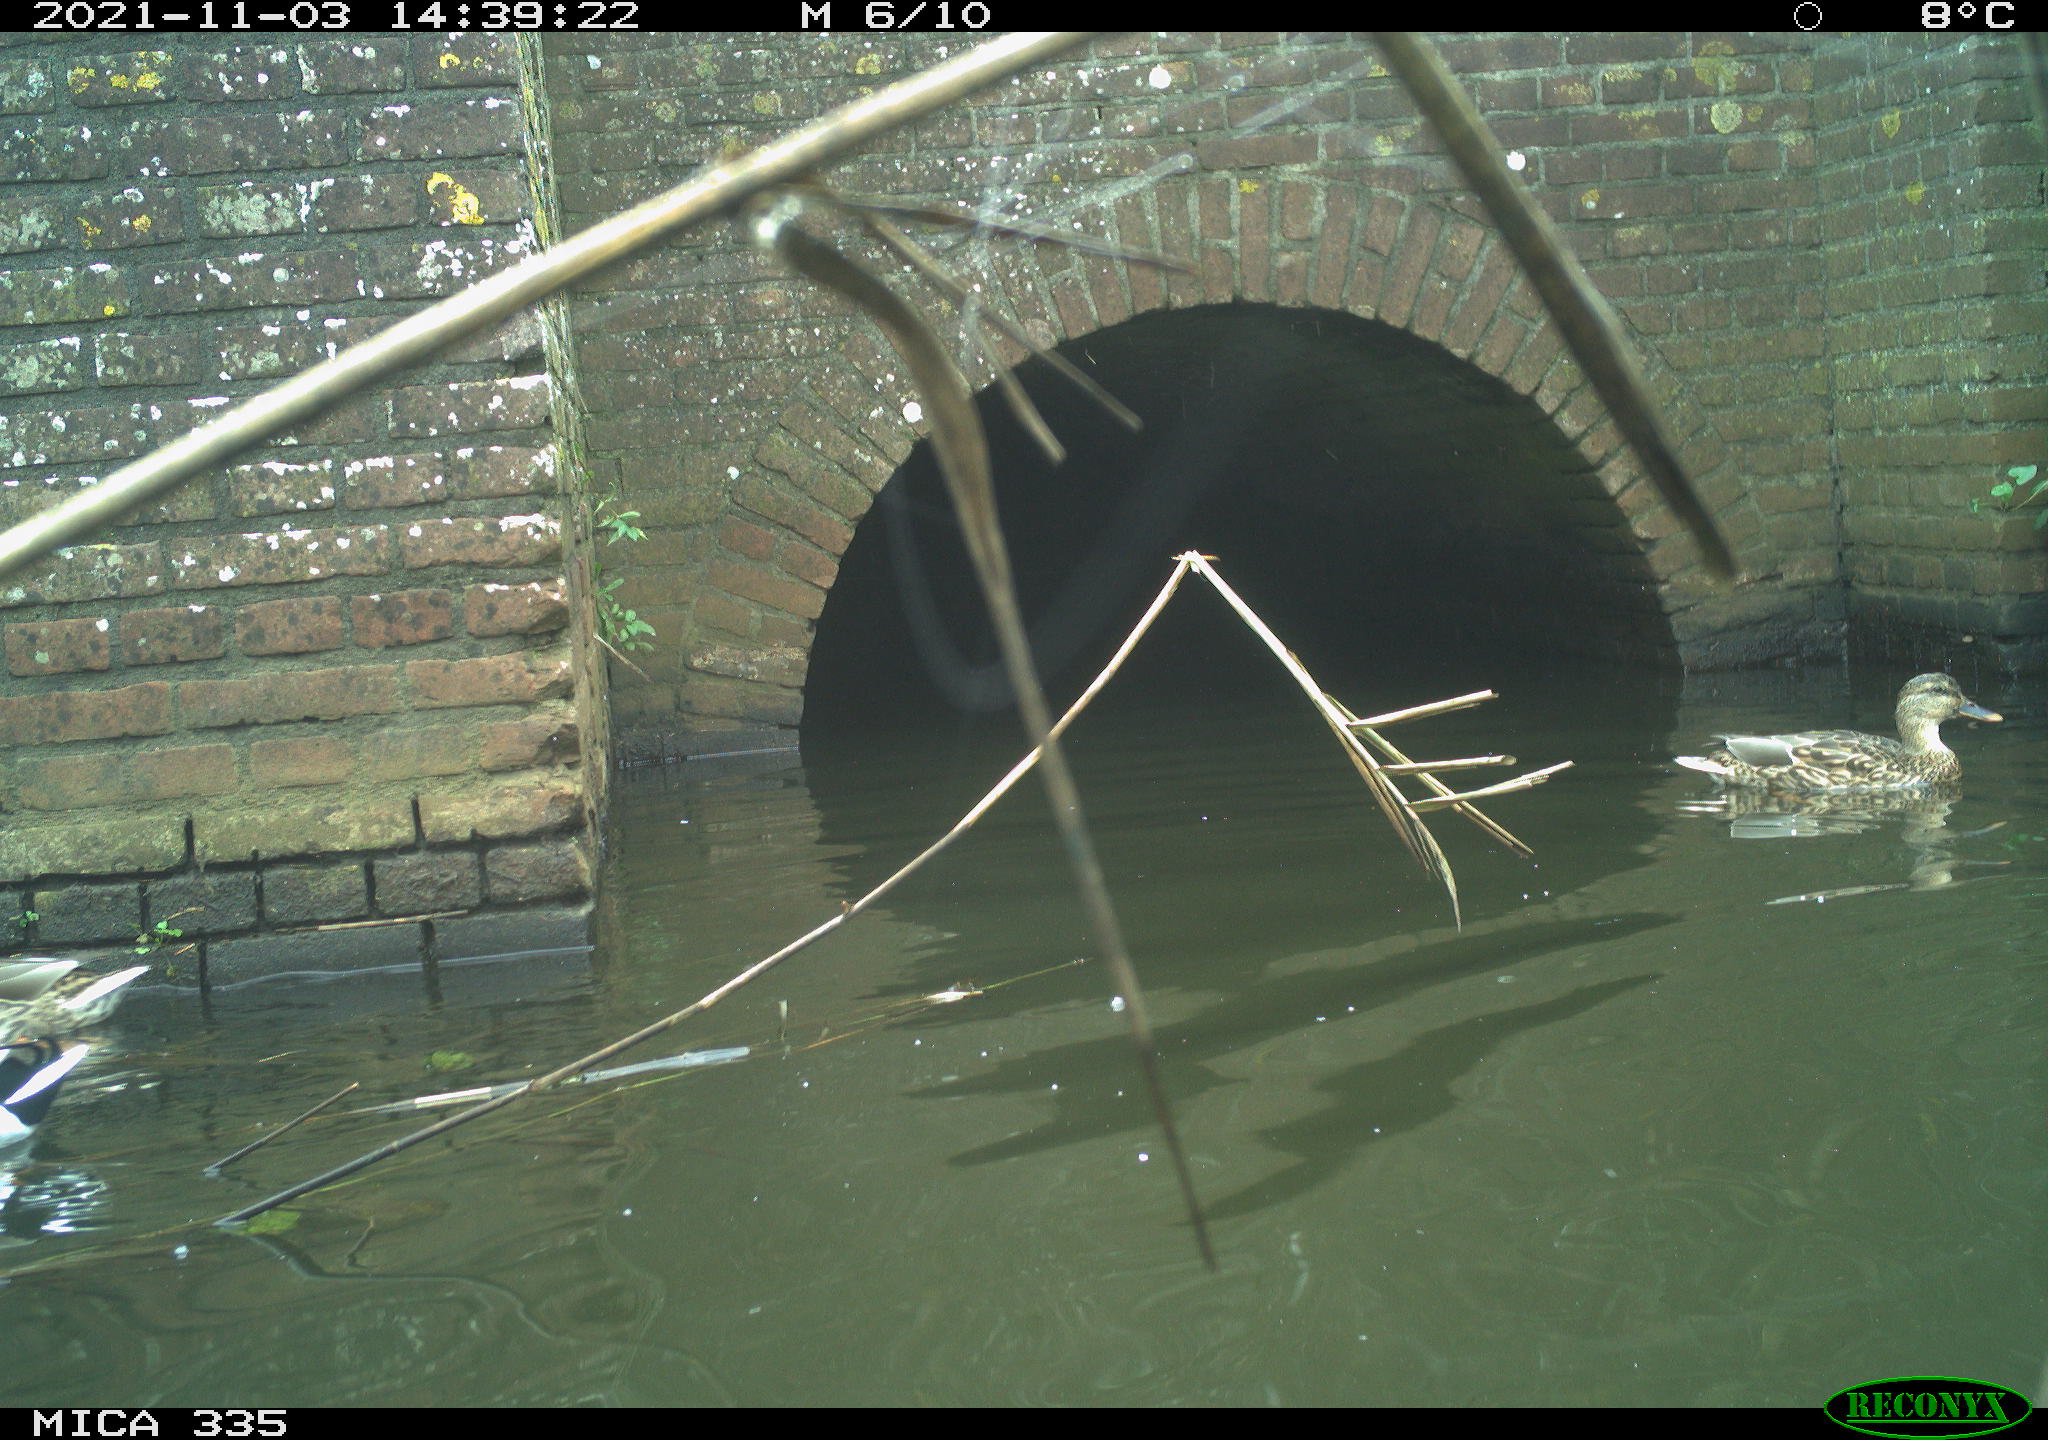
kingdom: Animalia
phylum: Chordata
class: Aves
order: Anseriformes
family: Anatidae
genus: Anas
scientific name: Anas platyrhynchos
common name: Mallard
